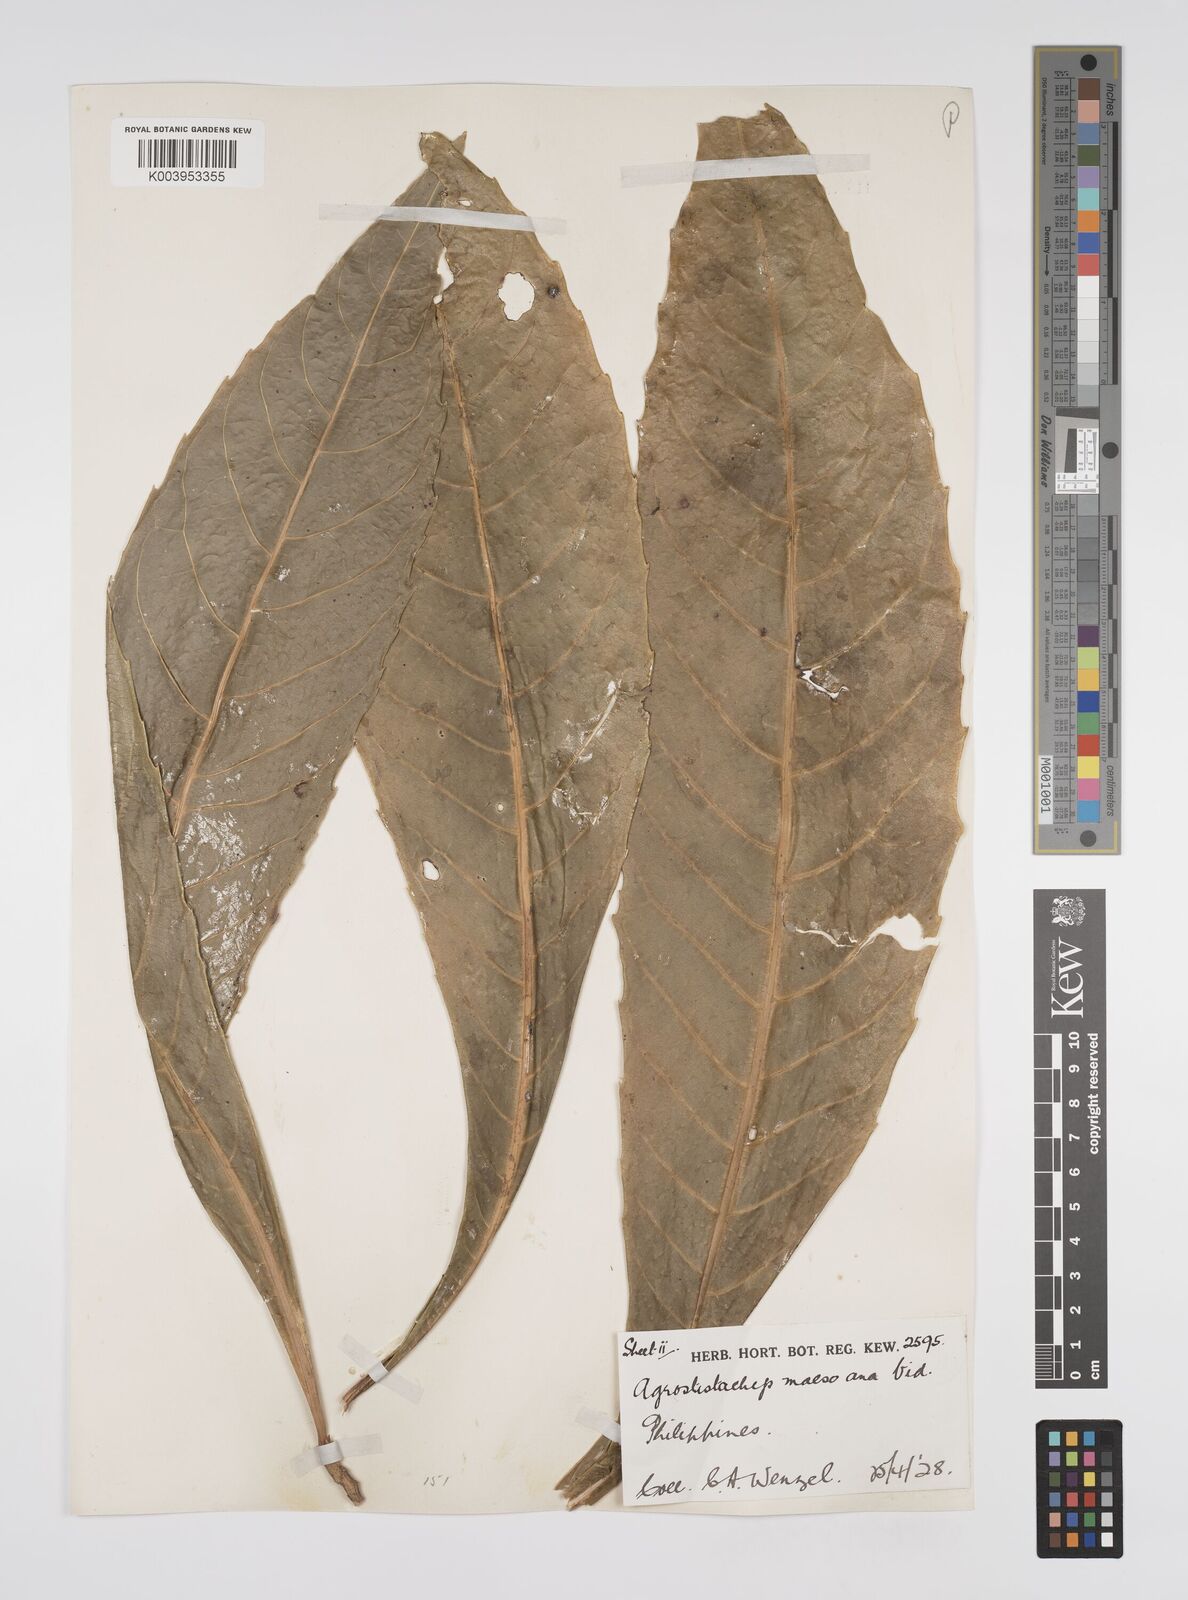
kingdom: Plantae
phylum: Tracheophyta
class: Magnoliopsida
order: Malpighiales
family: Euphorbiaceae
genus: Agrostistachys
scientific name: Agrostistachys indica
